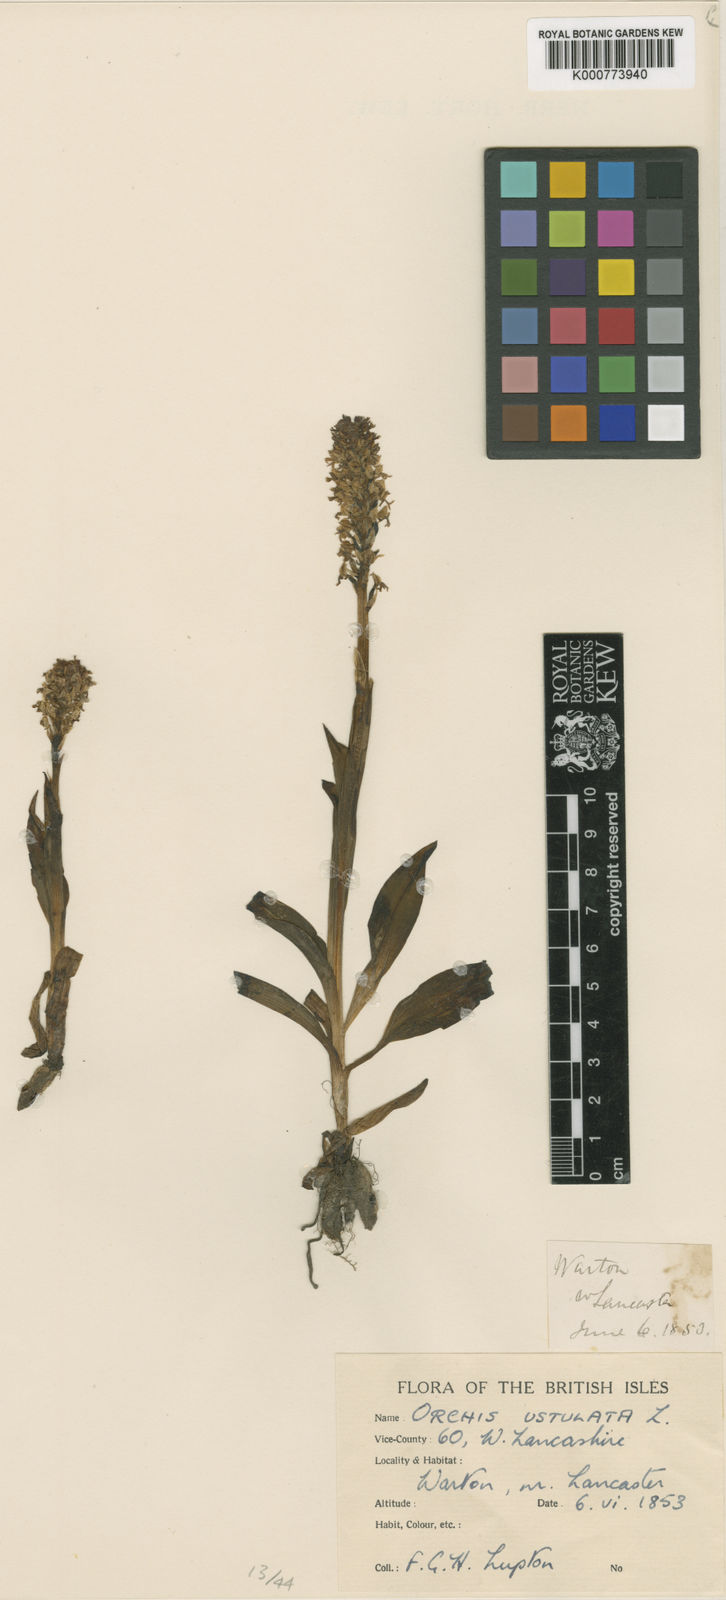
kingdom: Plantae
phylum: Tracheophyta
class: Liliopsida
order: Asparagales
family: Orchidaceae
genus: Neotinea
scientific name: Neotinea ustulata
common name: Burnt orchid
